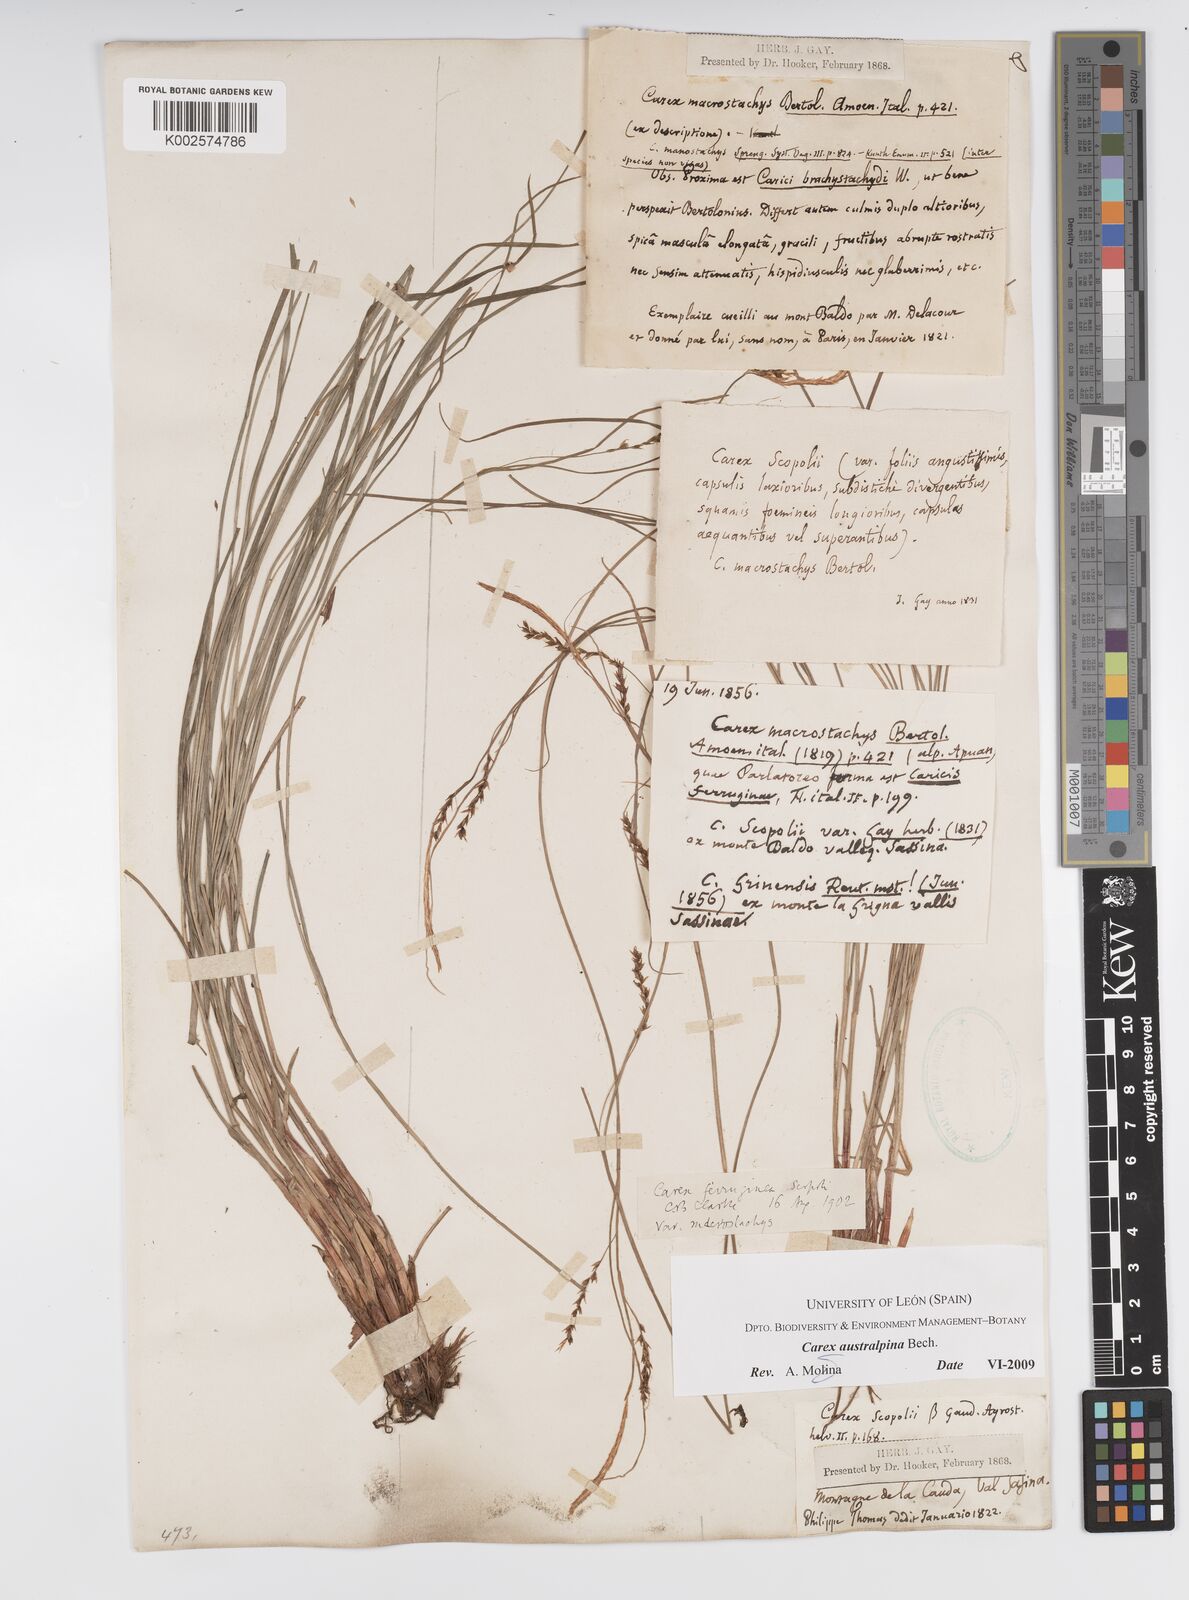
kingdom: Plantae
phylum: Tracheophyta
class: Liliopsida
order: Poales
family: Cyperaceae
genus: Carex
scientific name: Carex austroalpina
